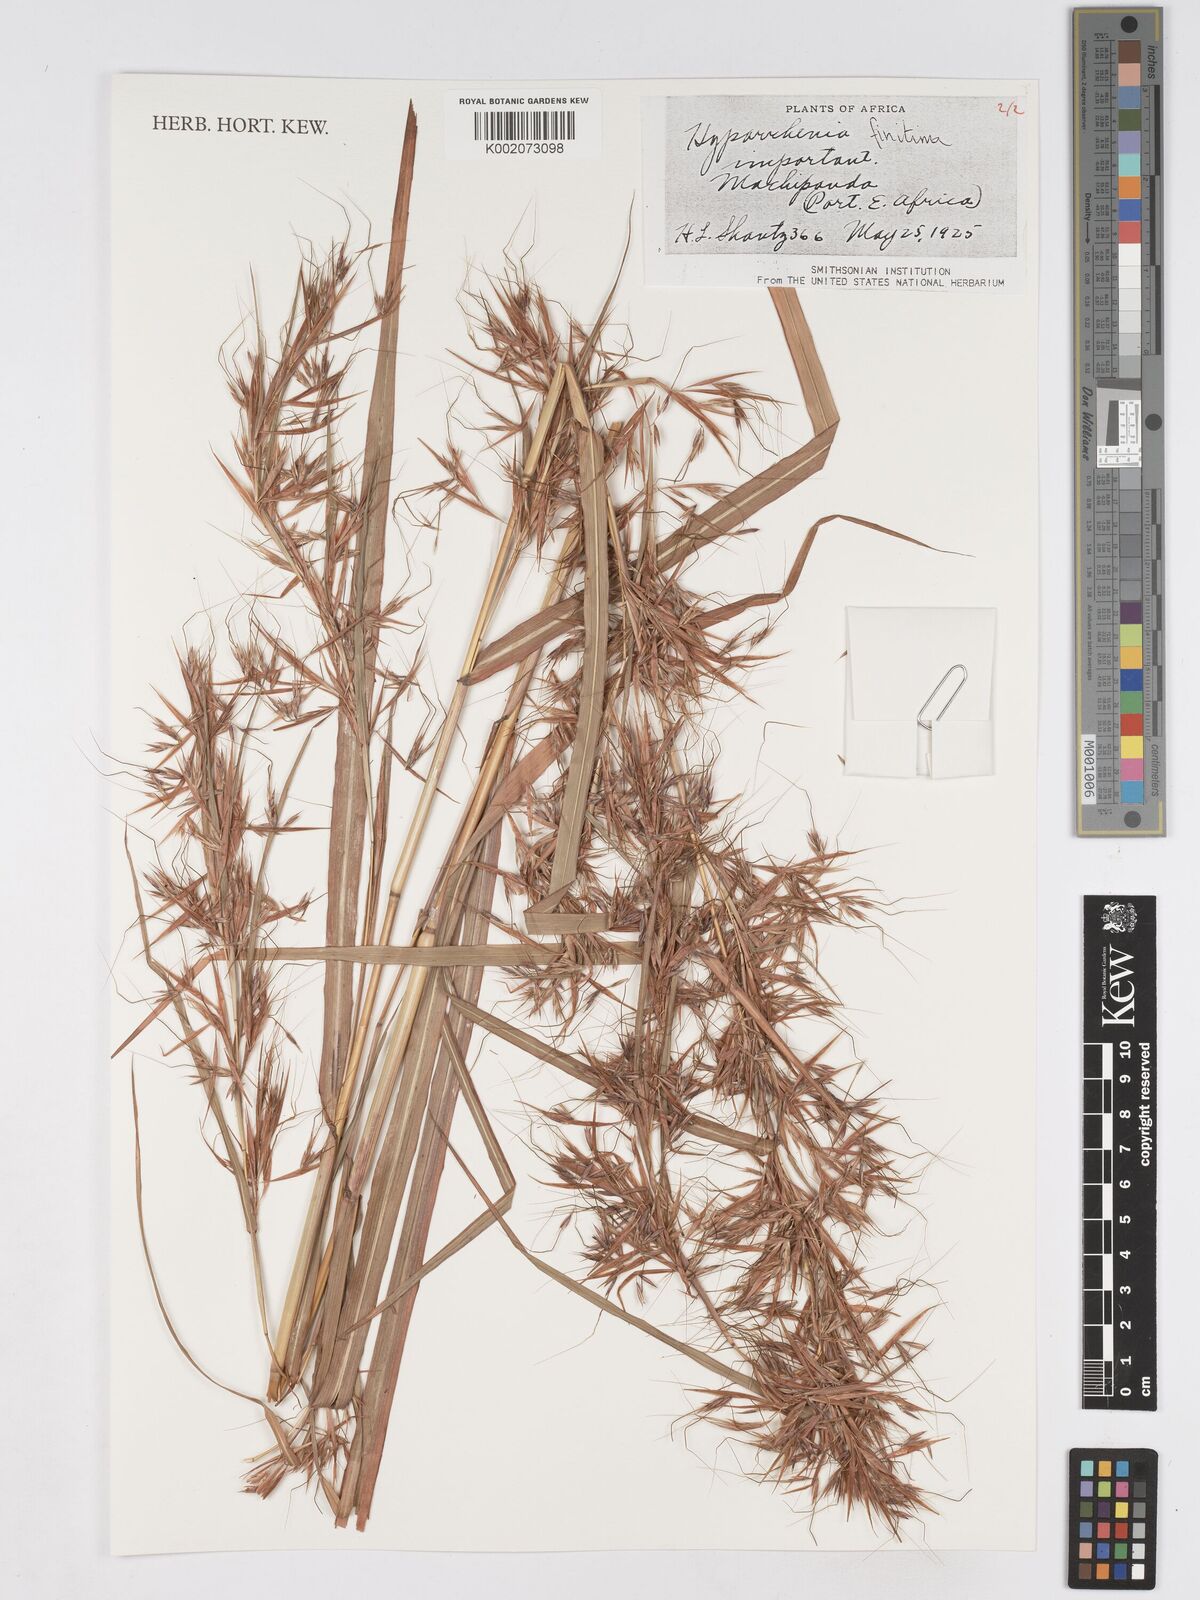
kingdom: Plantae
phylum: Tracheophyta
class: Liliopsida
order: Poales
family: Poaceae
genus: Hyparrhenia
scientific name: Hyparrhenia finitima
